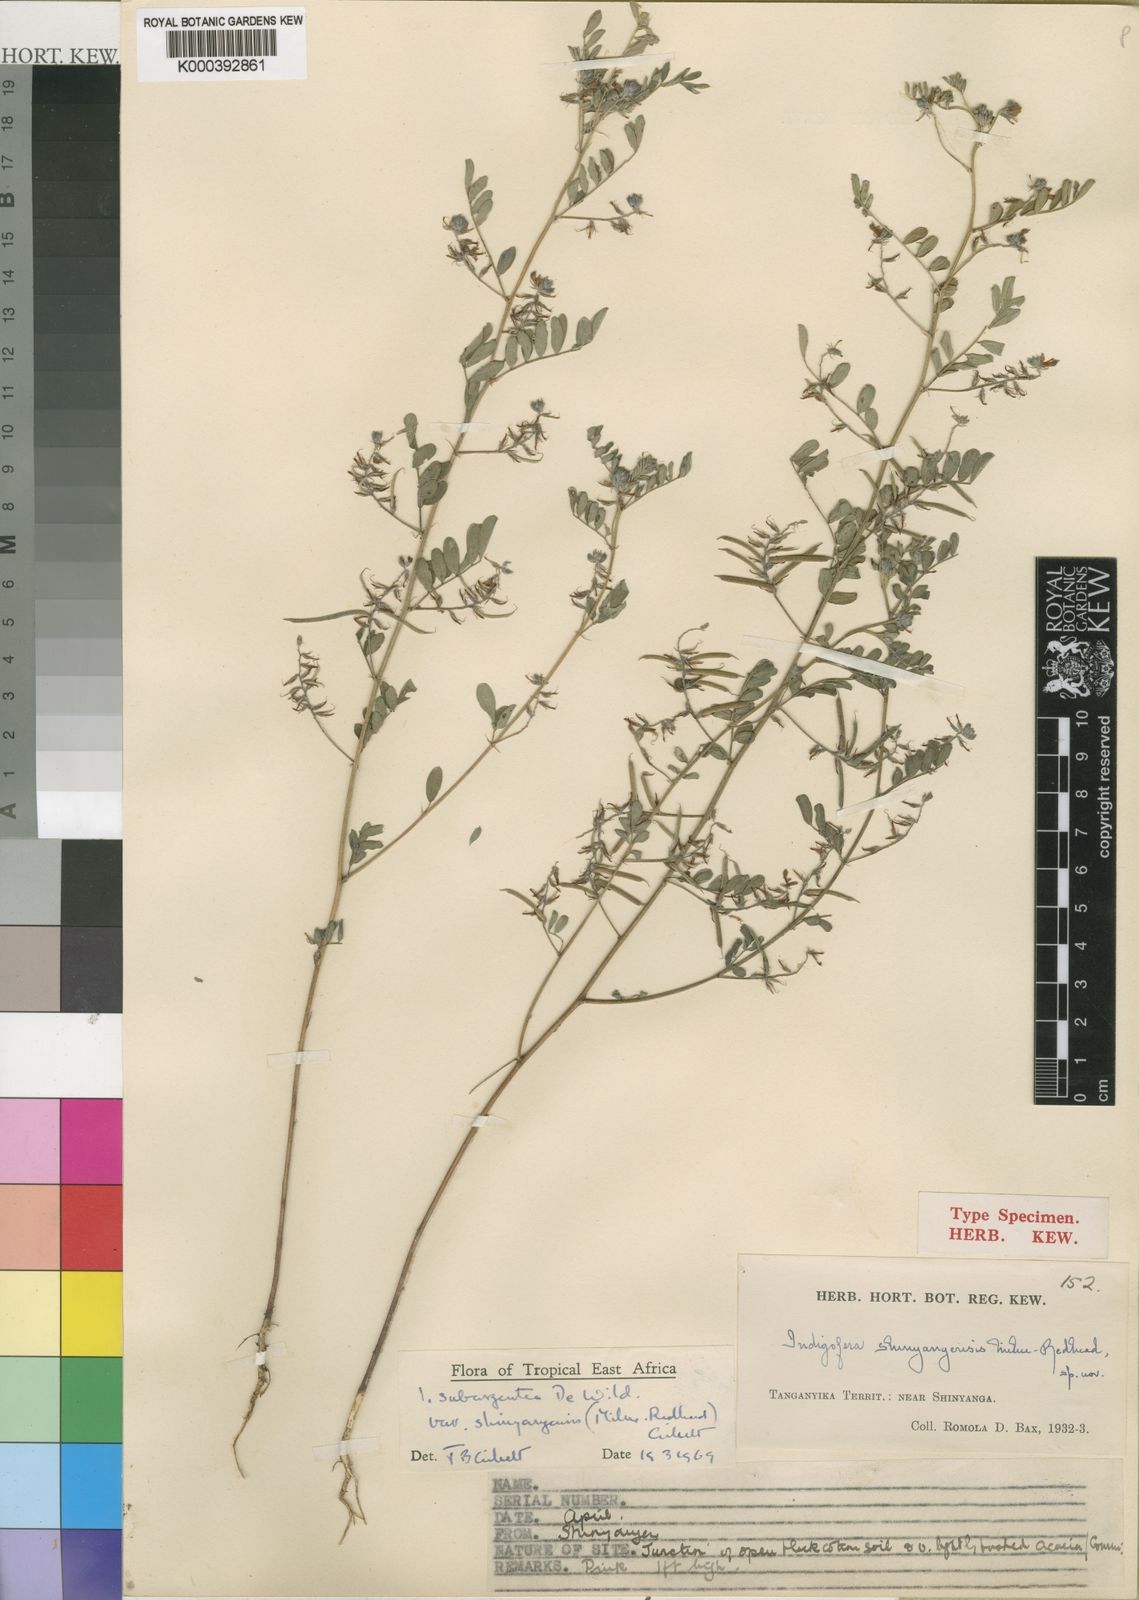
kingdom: Plantae
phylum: Tracheophyta
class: Magnoliopsida
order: Fabales
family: Fabaceae
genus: Indigofera
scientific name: Indigofera subargentea
